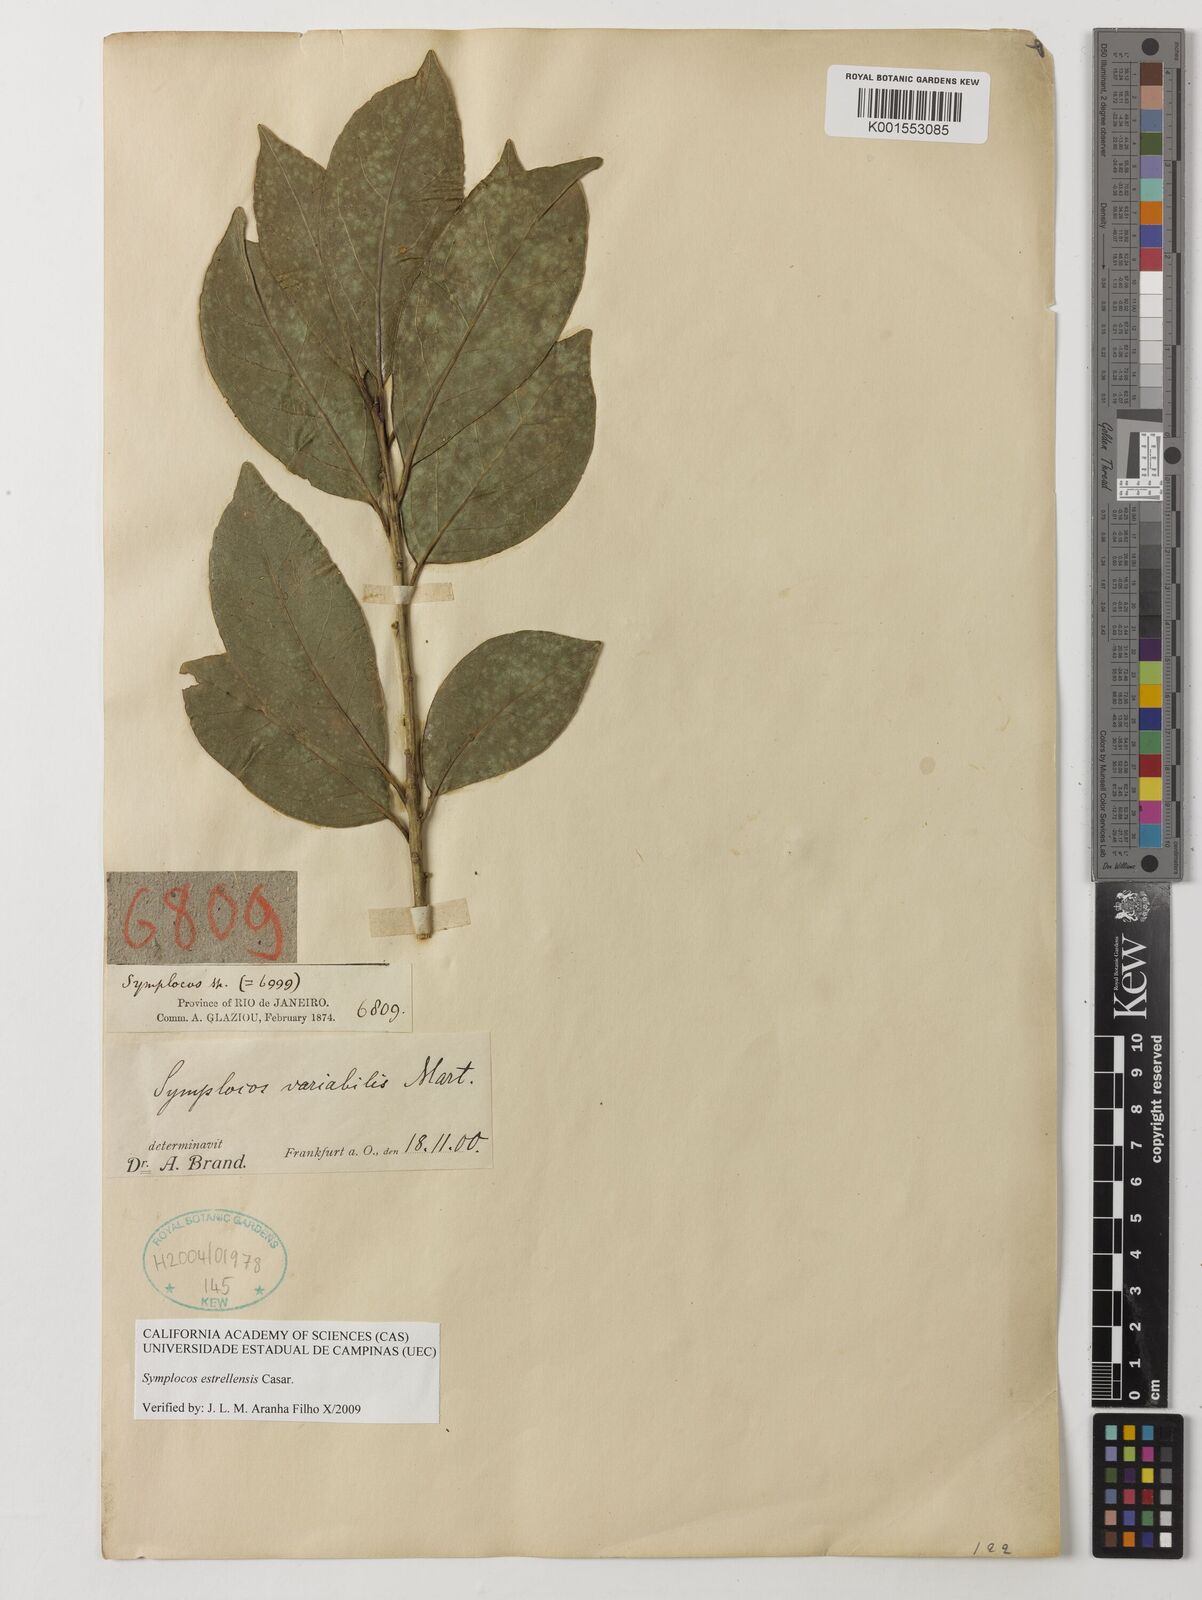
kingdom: Plantae
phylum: Tracheophyta
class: Magnoliopsida
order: Ericales
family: Symplocaceae
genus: Symplocos
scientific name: Symplocos estrellensis
